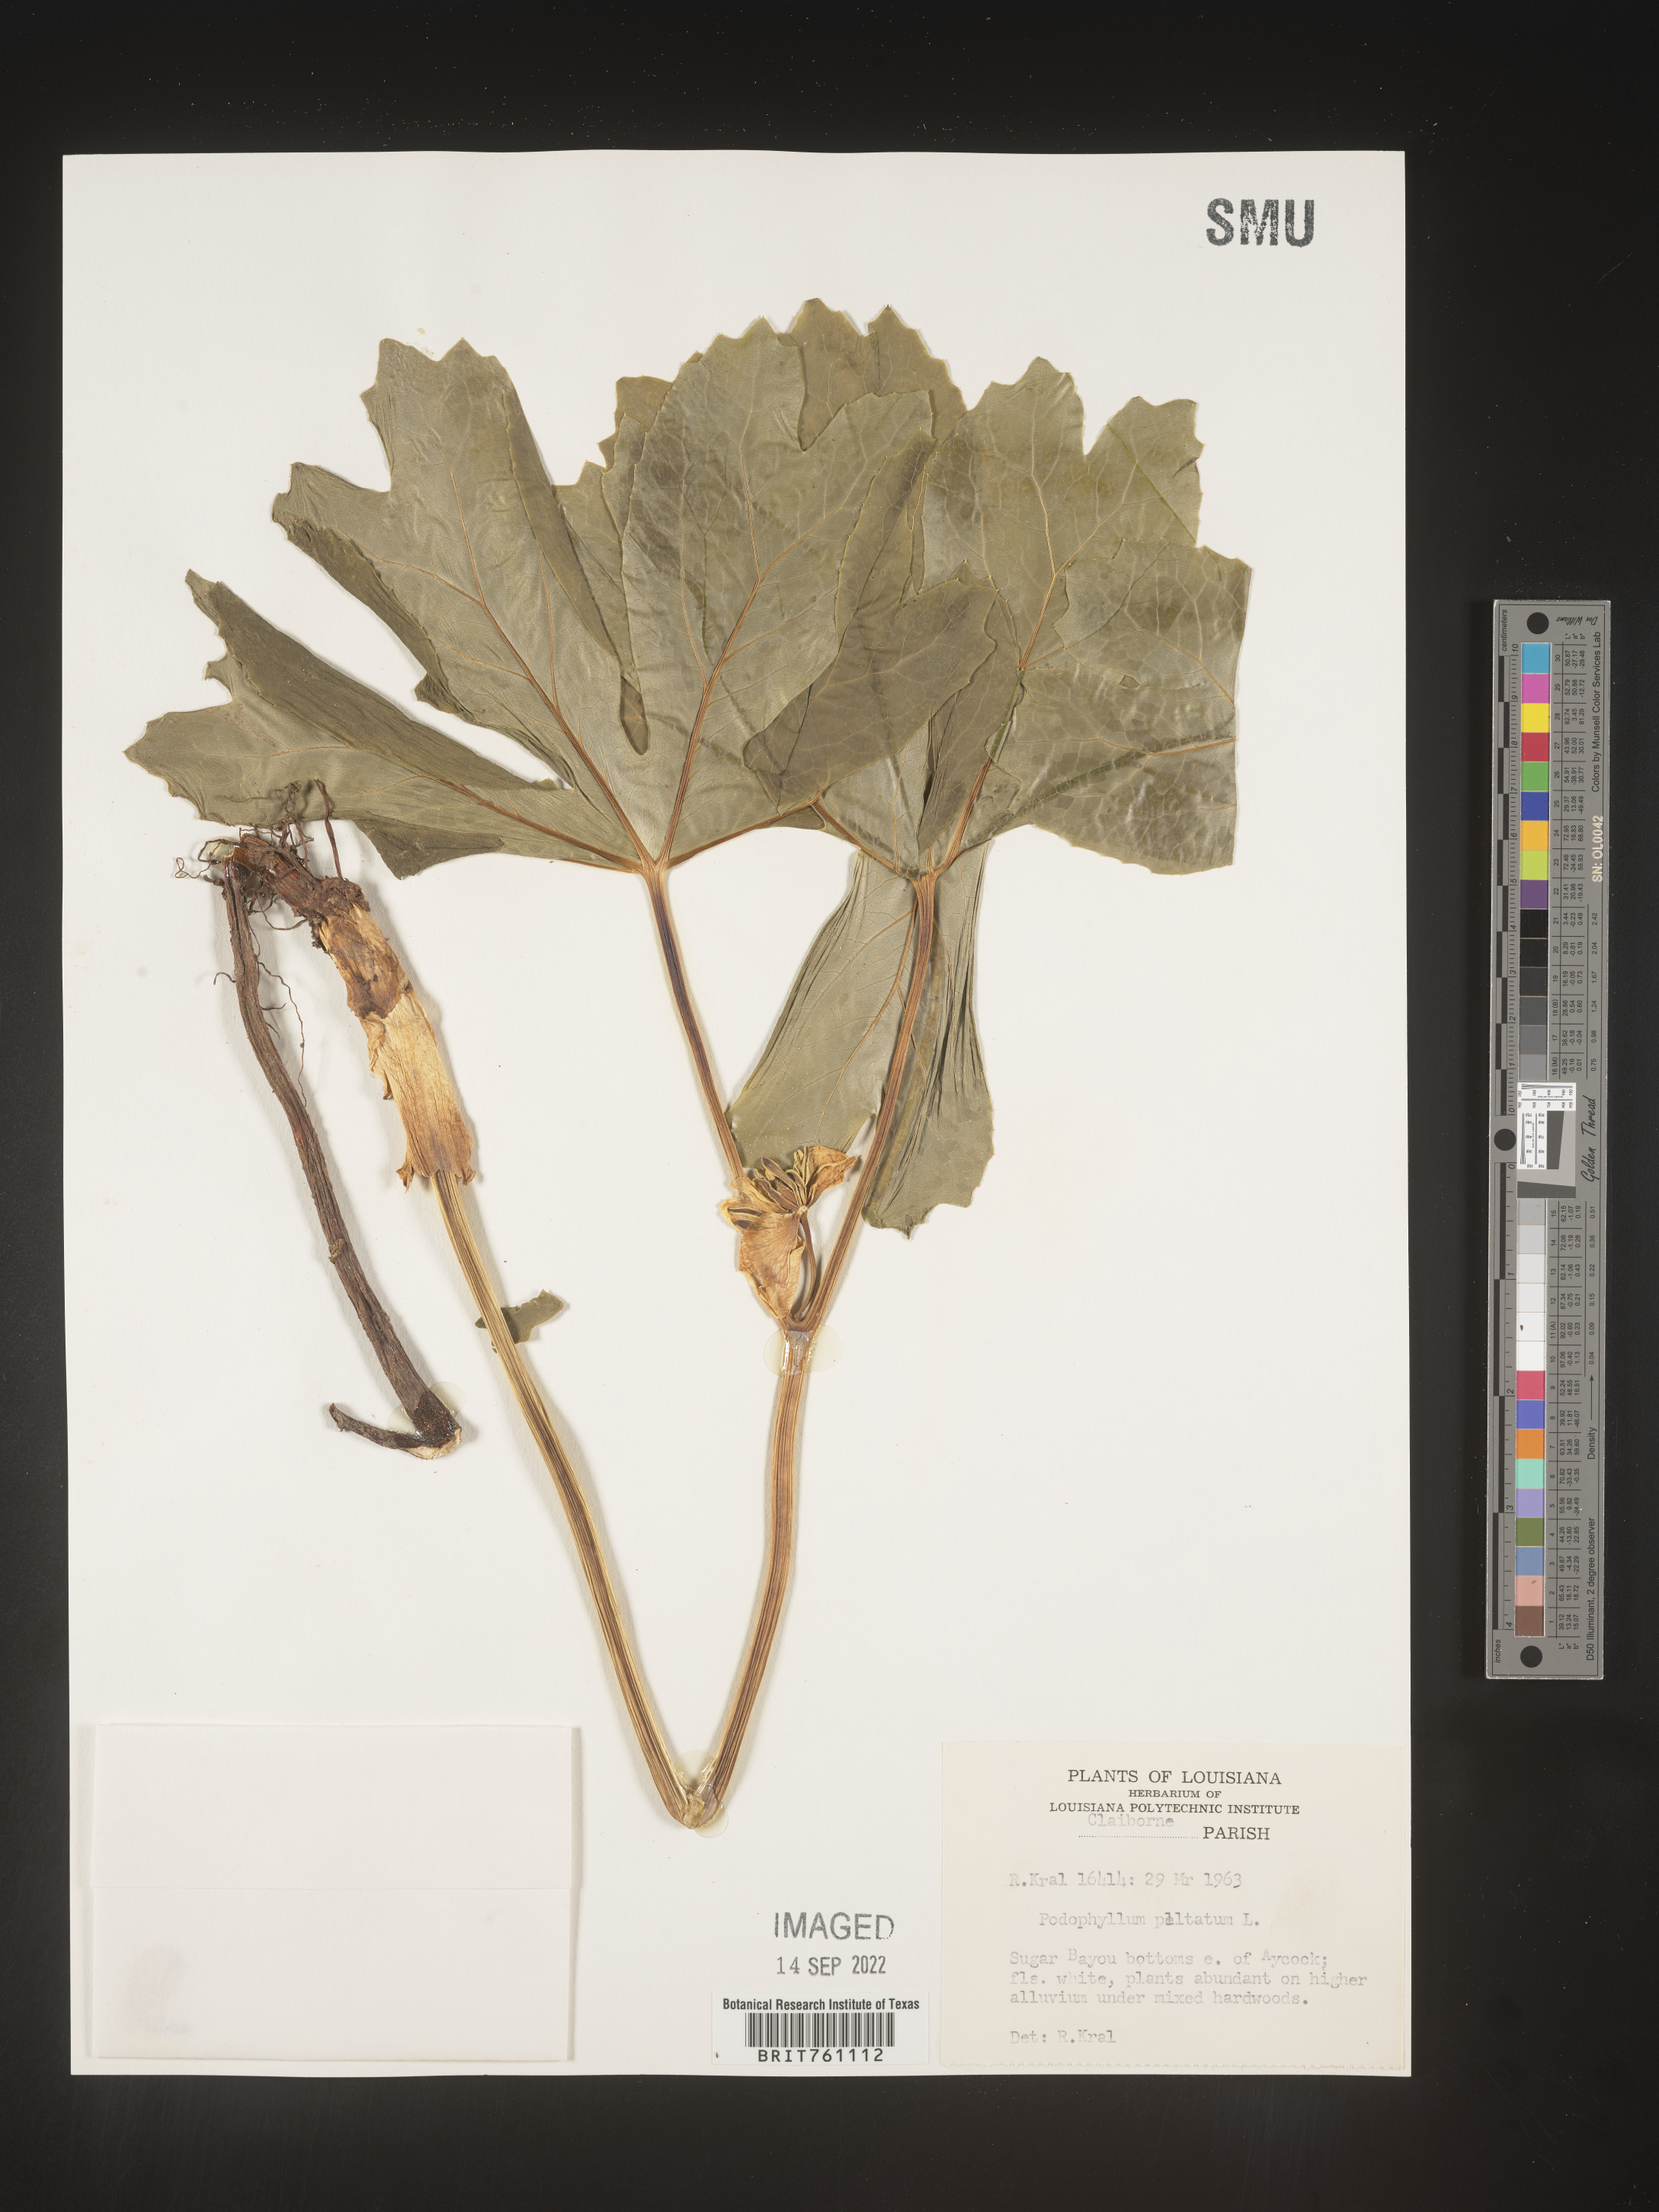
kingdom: Plantae
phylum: Tracheophyta
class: Magnoliopsida
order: Ranunculales
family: Berberidaceae
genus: Podophyllum
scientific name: Podophyllum peltatum
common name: Wild mandrake
